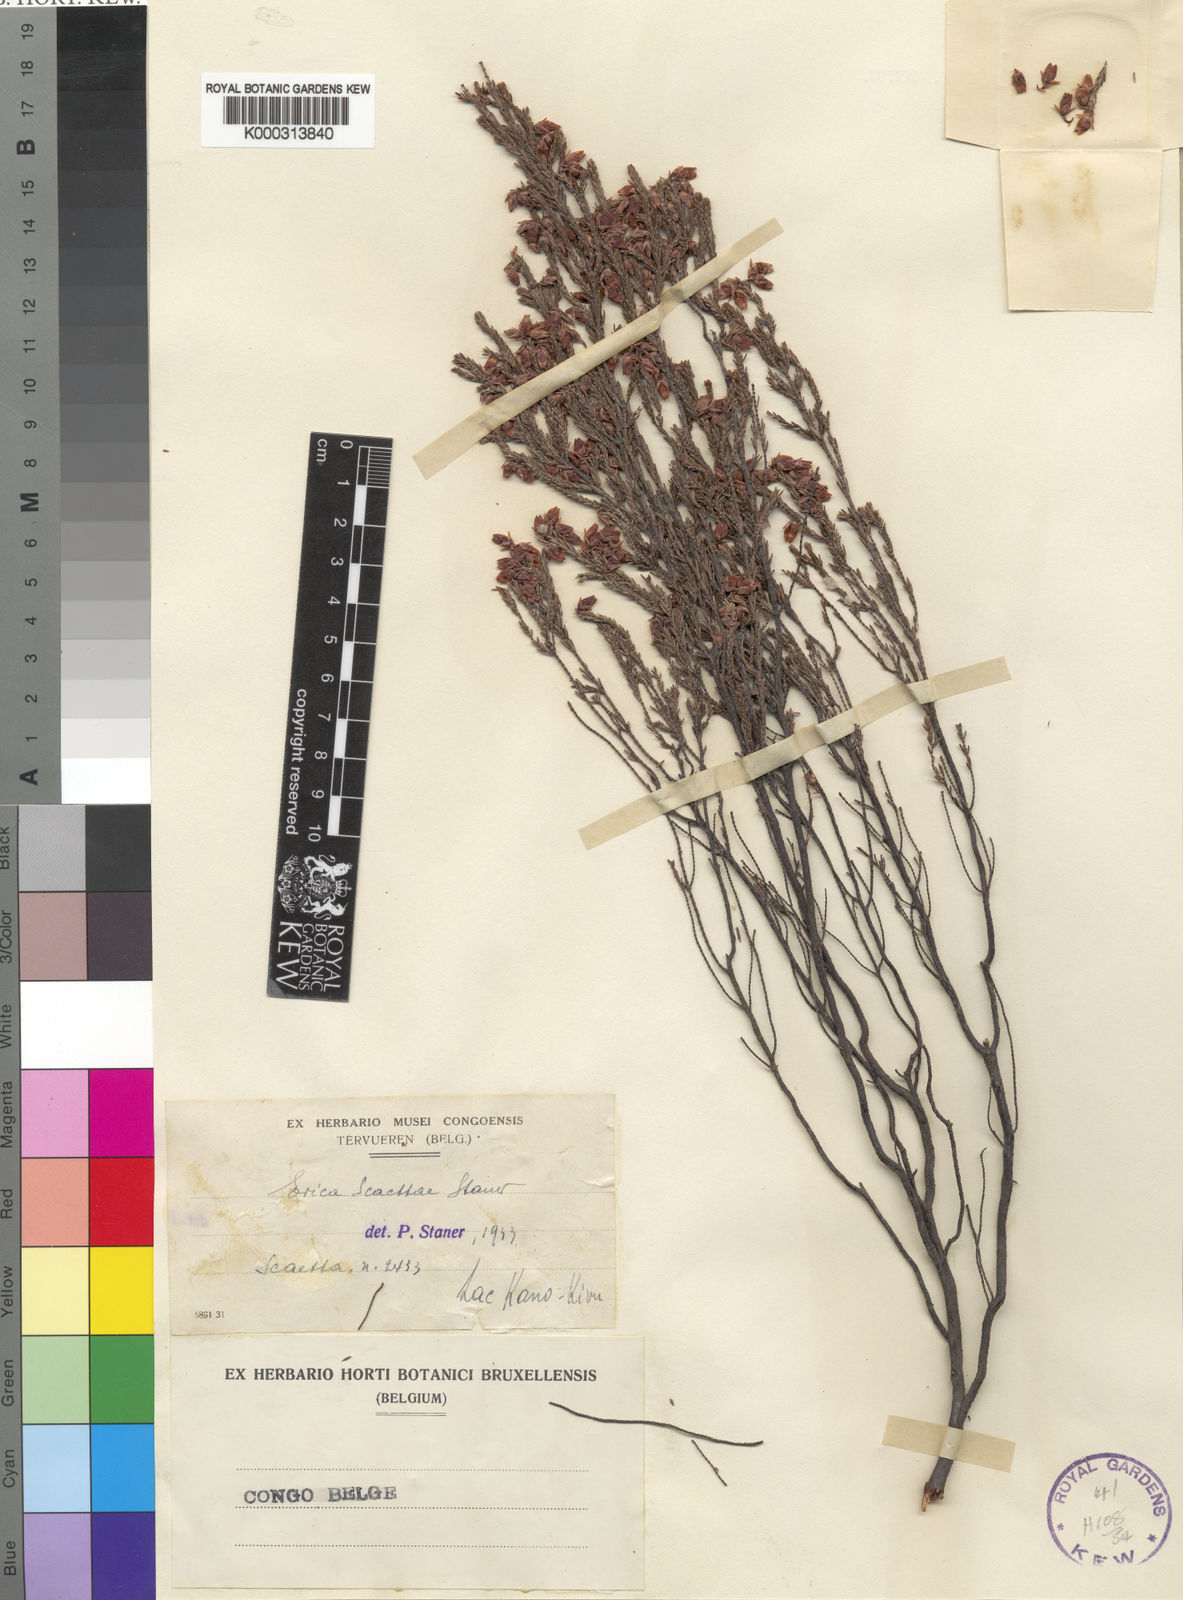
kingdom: Plantae
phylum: Tracheophyta
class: Magnoliopsida
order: Ericales
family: Ericaceae
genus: Erica
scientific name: Erica kingaensis
